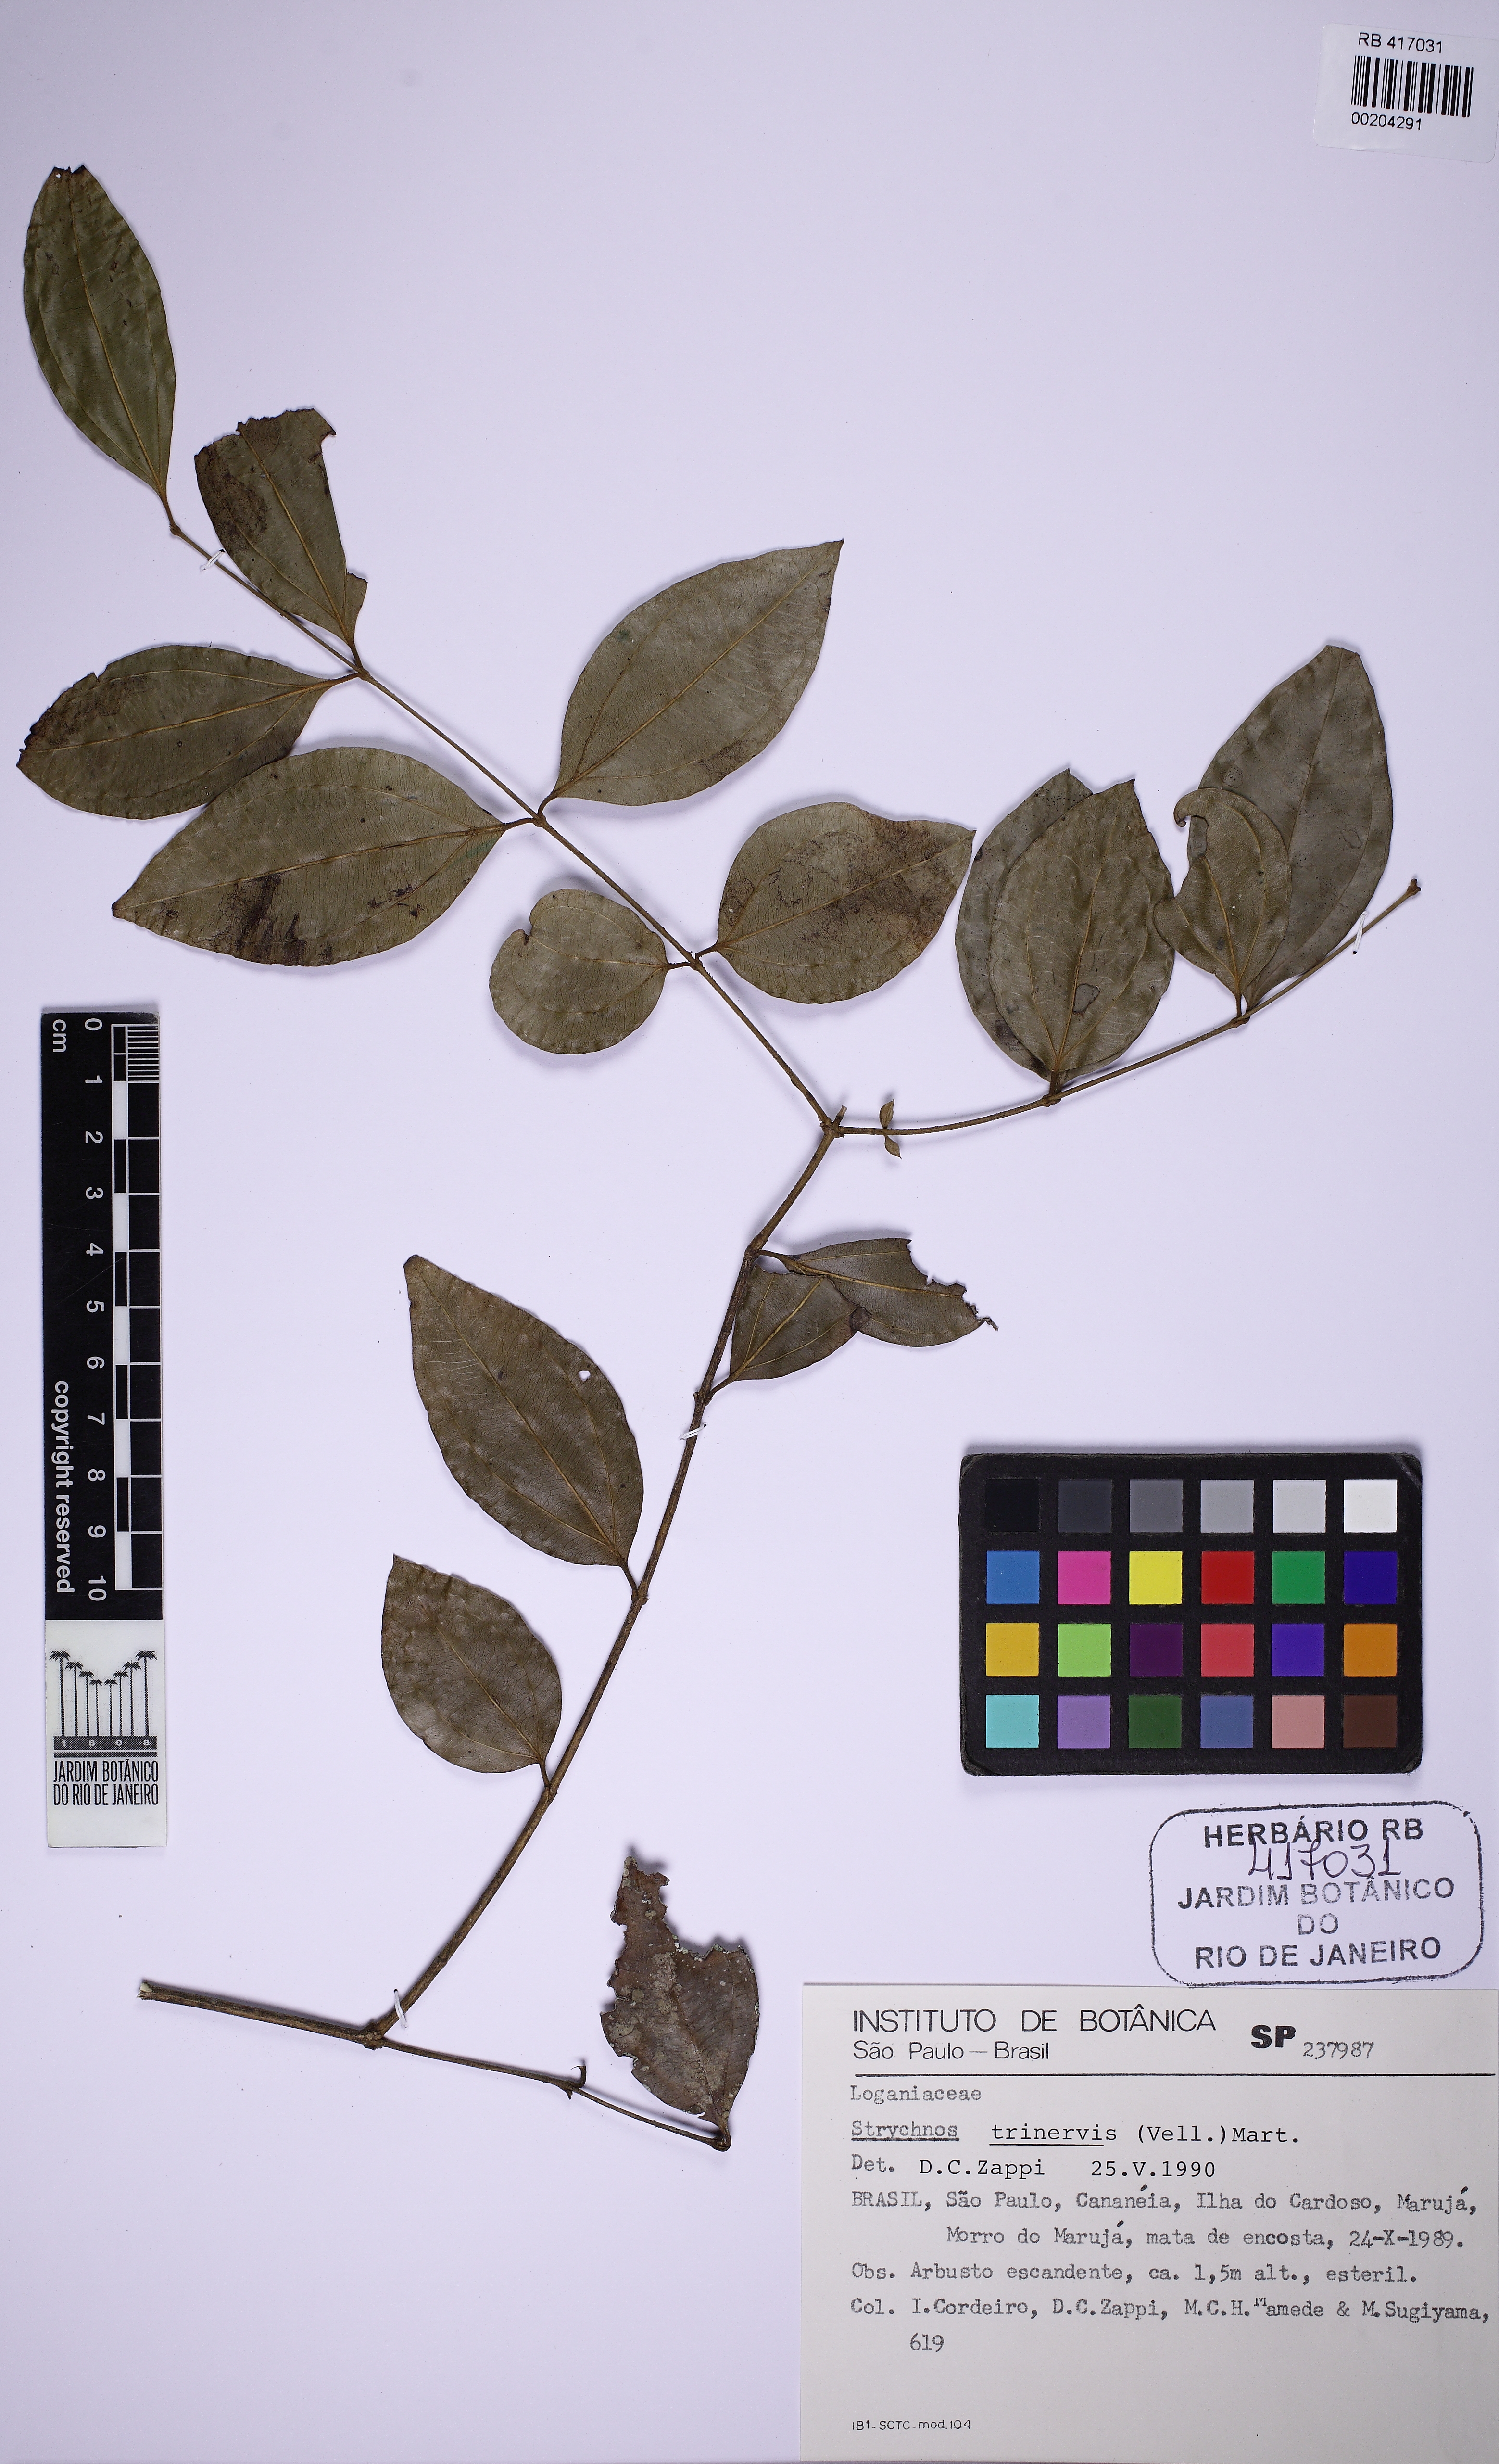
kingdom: Plantae
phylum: Tracheophyta
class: Magnoliopsida
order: Gentianales
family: Loganiaceae
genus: Strychnos
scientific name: Strychnos trinervis
